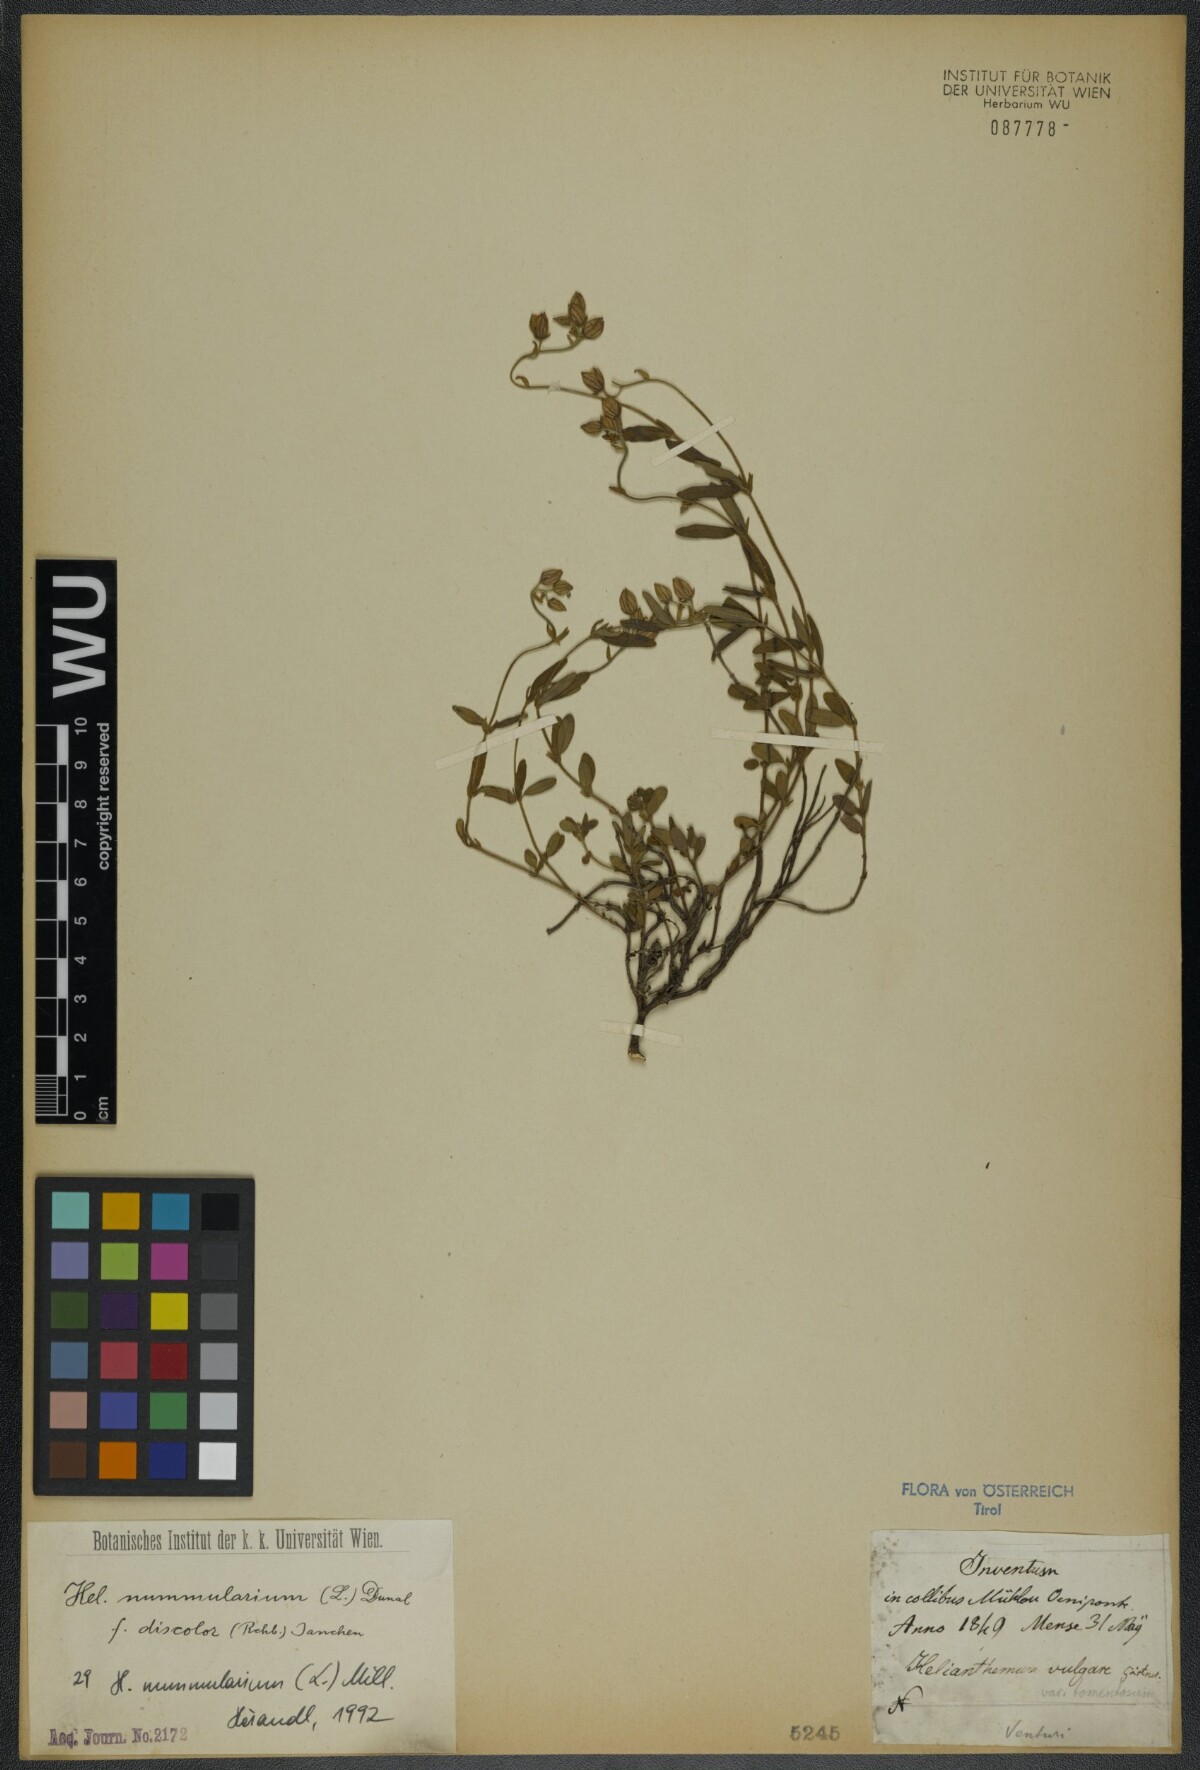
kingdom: Plantae
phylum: Tracheophyta
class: Magnoliopsida
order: Malvales
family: Cistaceae
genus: Helianthemum
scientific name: Helianthemum nummularium
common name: Common rock-rose
